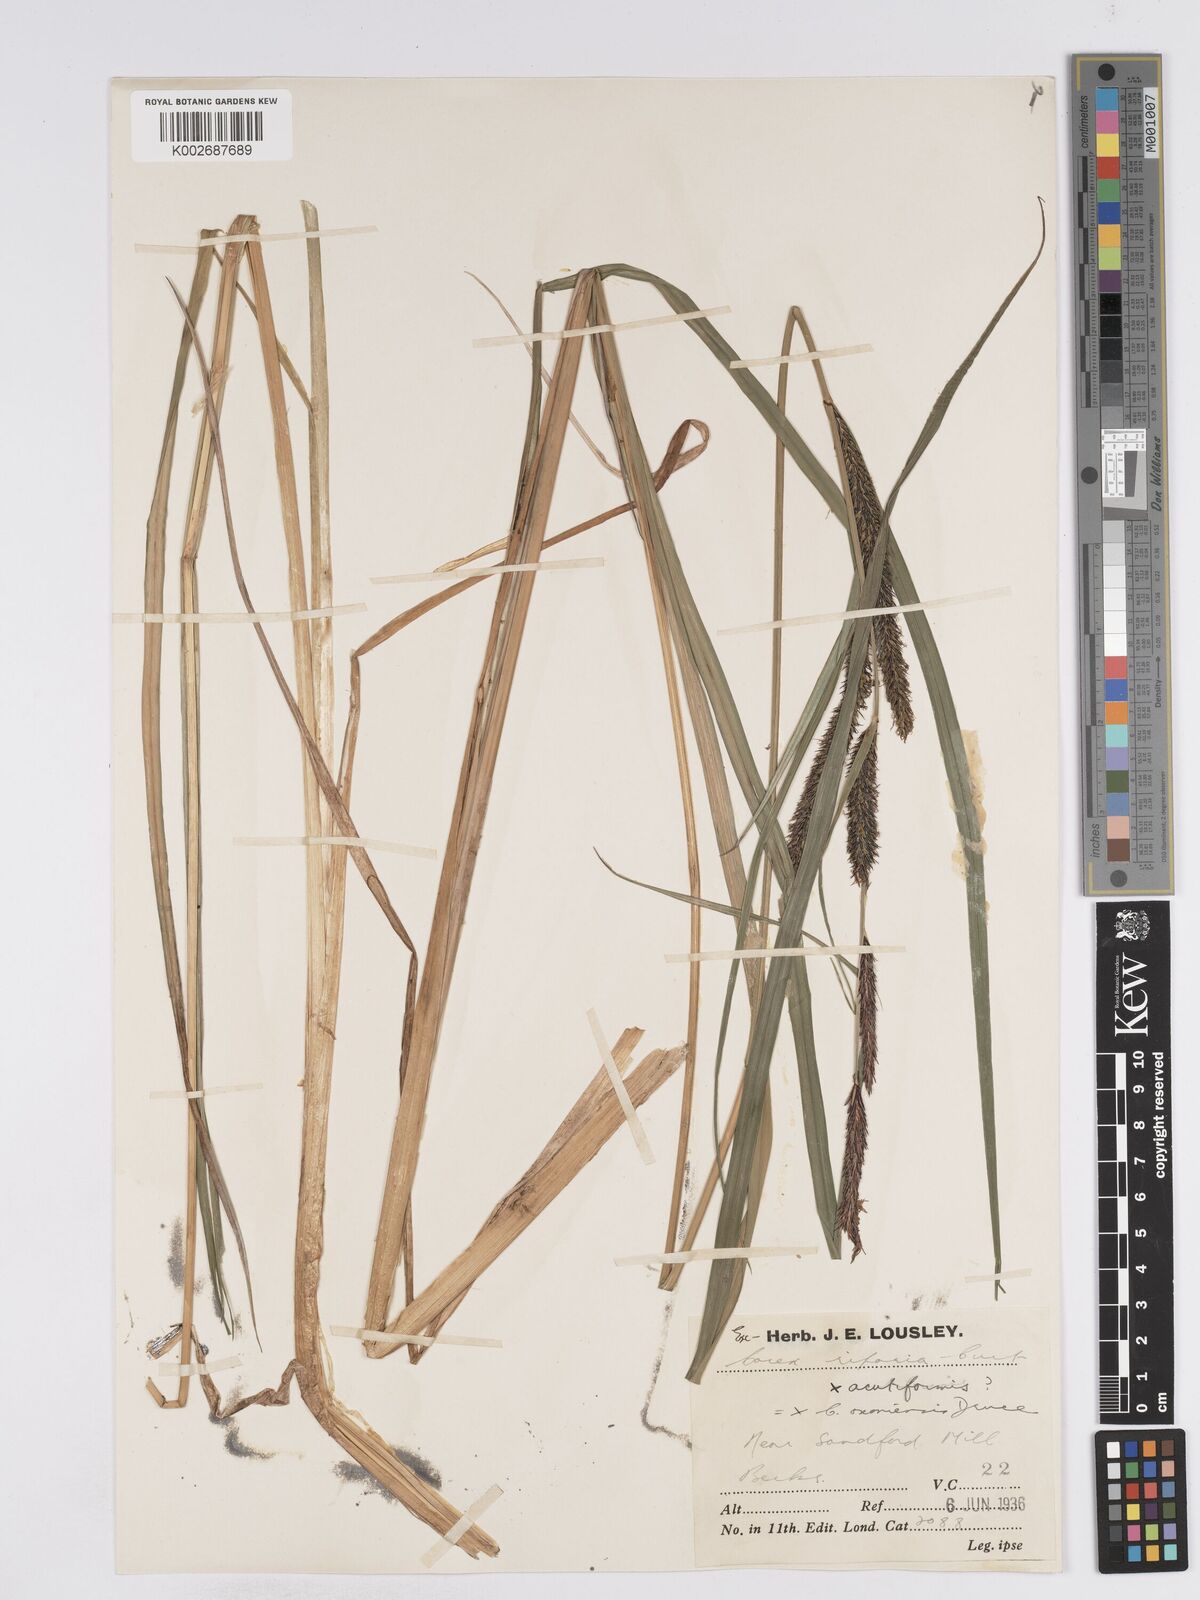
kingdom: Plantae
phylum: Tracheophyta
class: Liliopsida
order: Poales
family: Cyperaceae
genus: Carex
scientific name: Carex acuta
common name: Slender tufted-sedge
